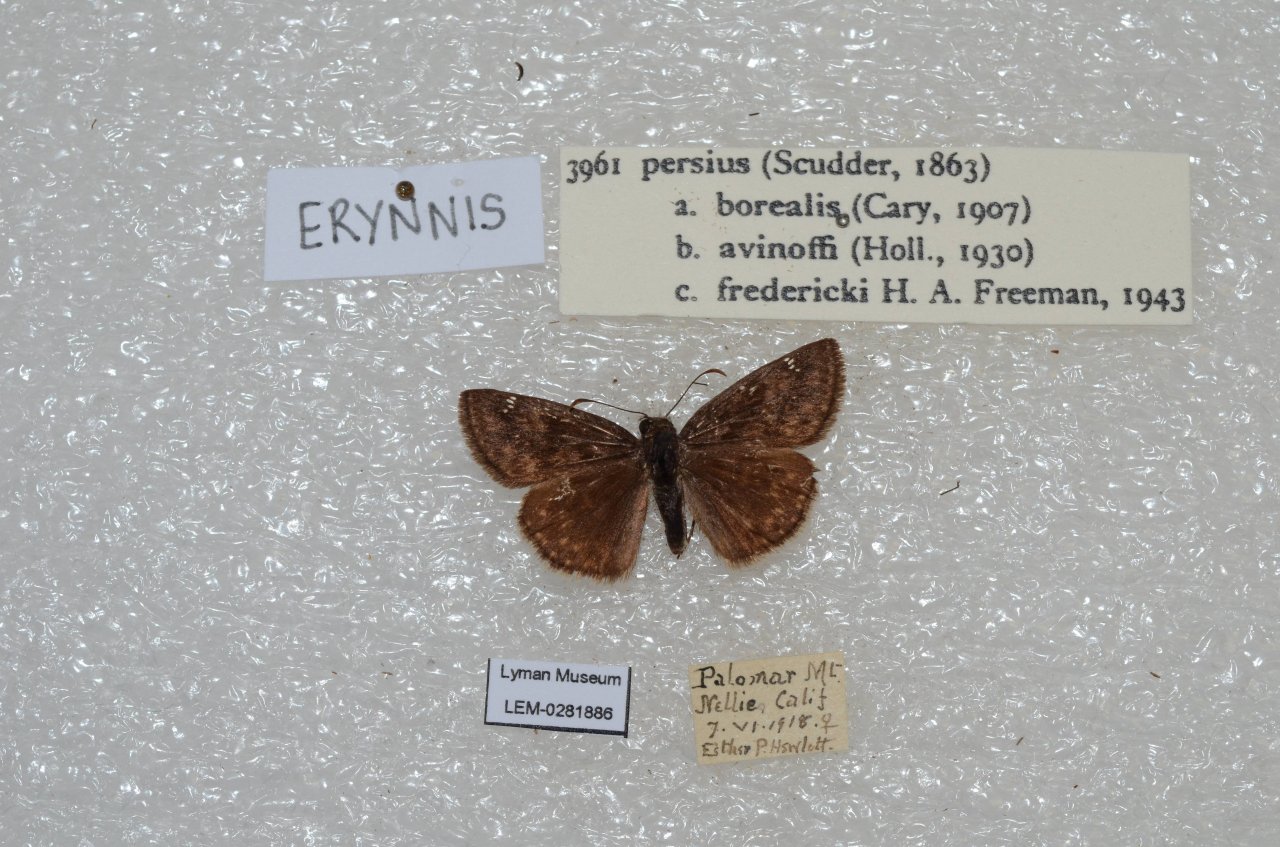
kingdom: Animalia
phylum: Arthropoda
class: Insecta
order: Lepidoptera
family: Hesperiidae
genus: Gesta
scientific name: Gesta
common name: Persius Duskywing
